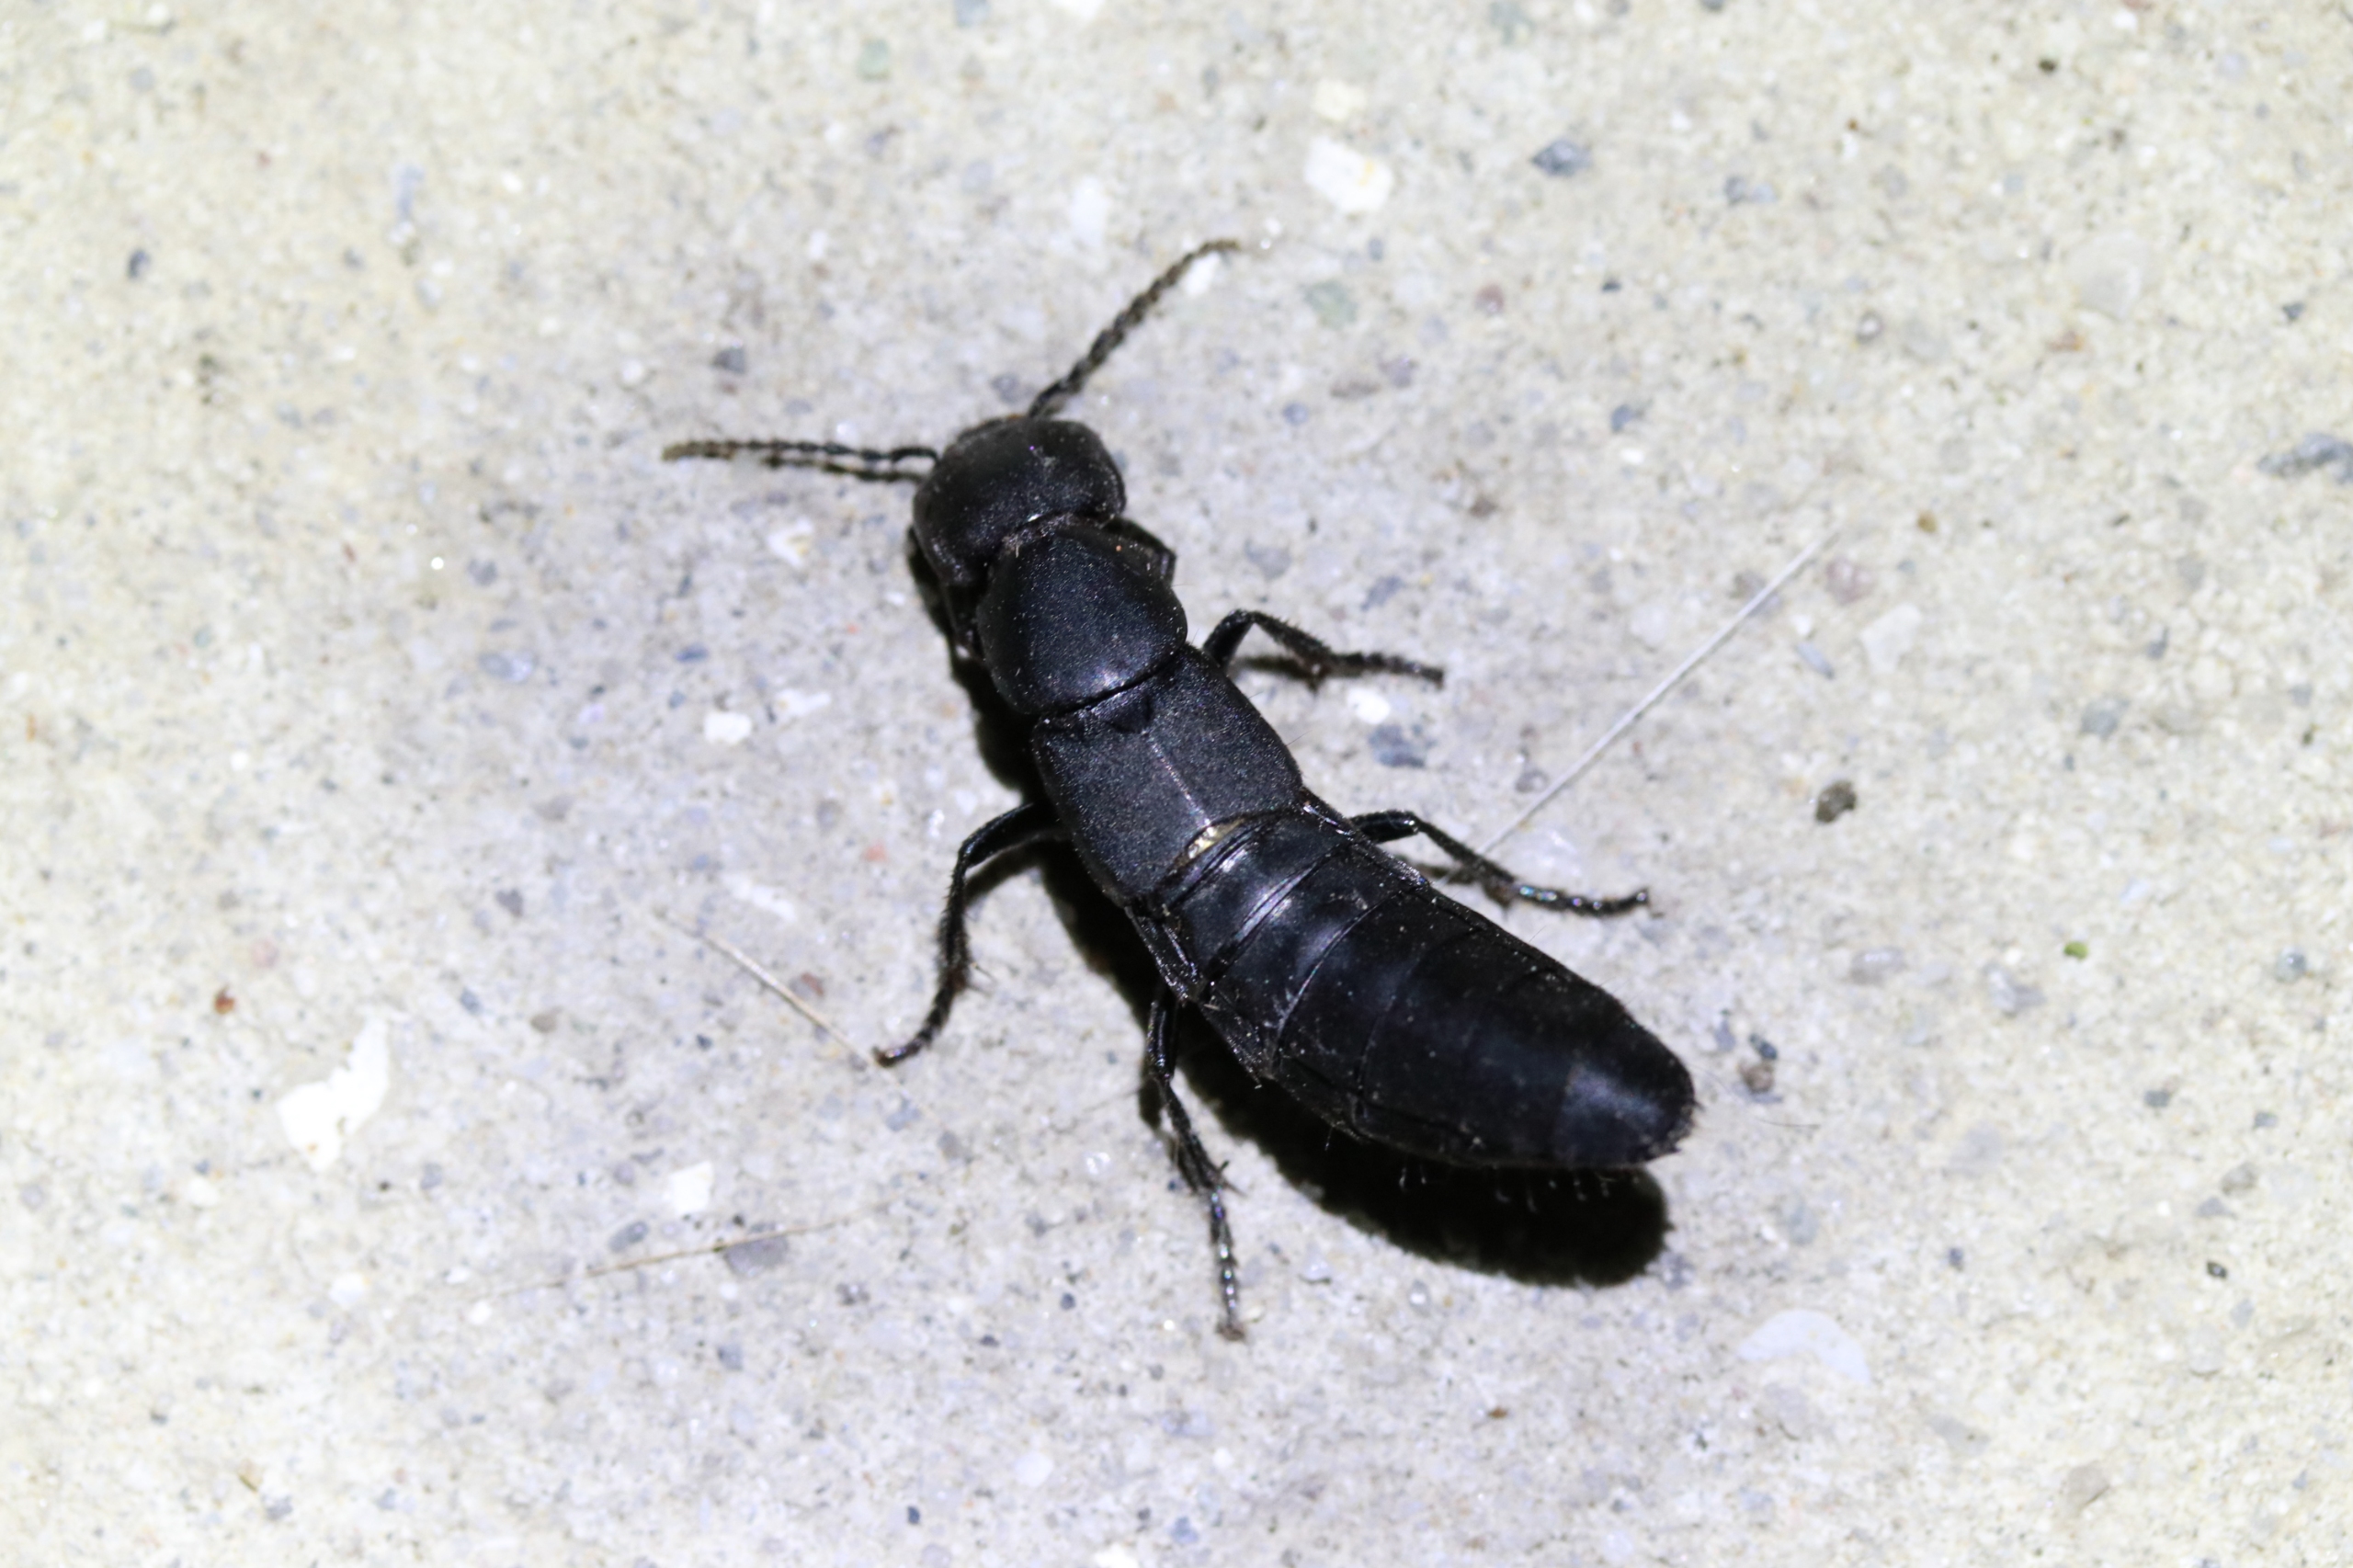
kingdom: Animalia
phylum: Arthropoda
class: Insecta
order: Coleoptera
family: Staphylinidae
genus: Ocypus
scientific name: Ocypus olens
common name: Stor rovbille
